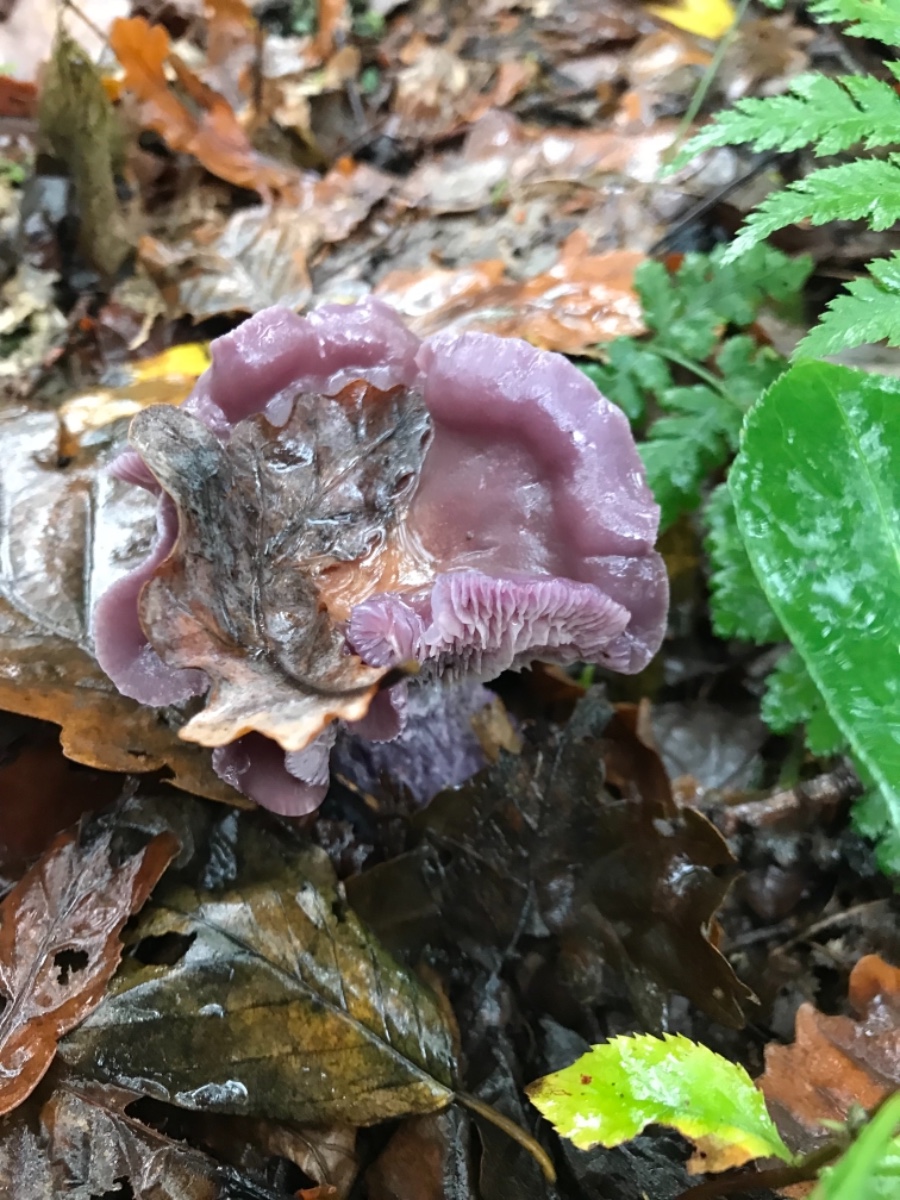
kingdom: Fungi
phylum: Basidiomycota
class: Agaricomycetes
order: Agaricales
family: Hydnangiaceae
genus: Laccaria
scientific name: Laccaria amethystina
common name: violet ametysthat
